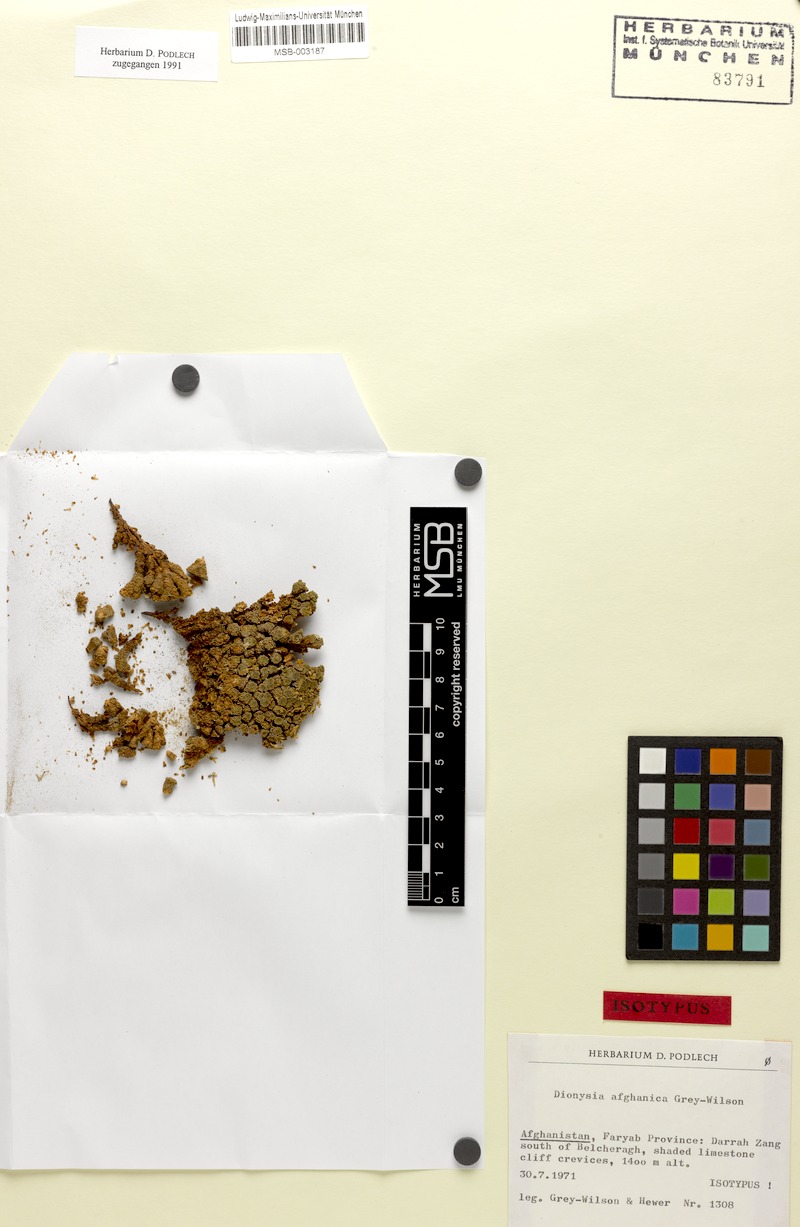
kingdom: Plantae
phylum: Tracheophyta
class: Magnoliopsida
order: Ericales
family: Primulaceae
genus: Dionysia
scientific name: Dionysia afghanica
